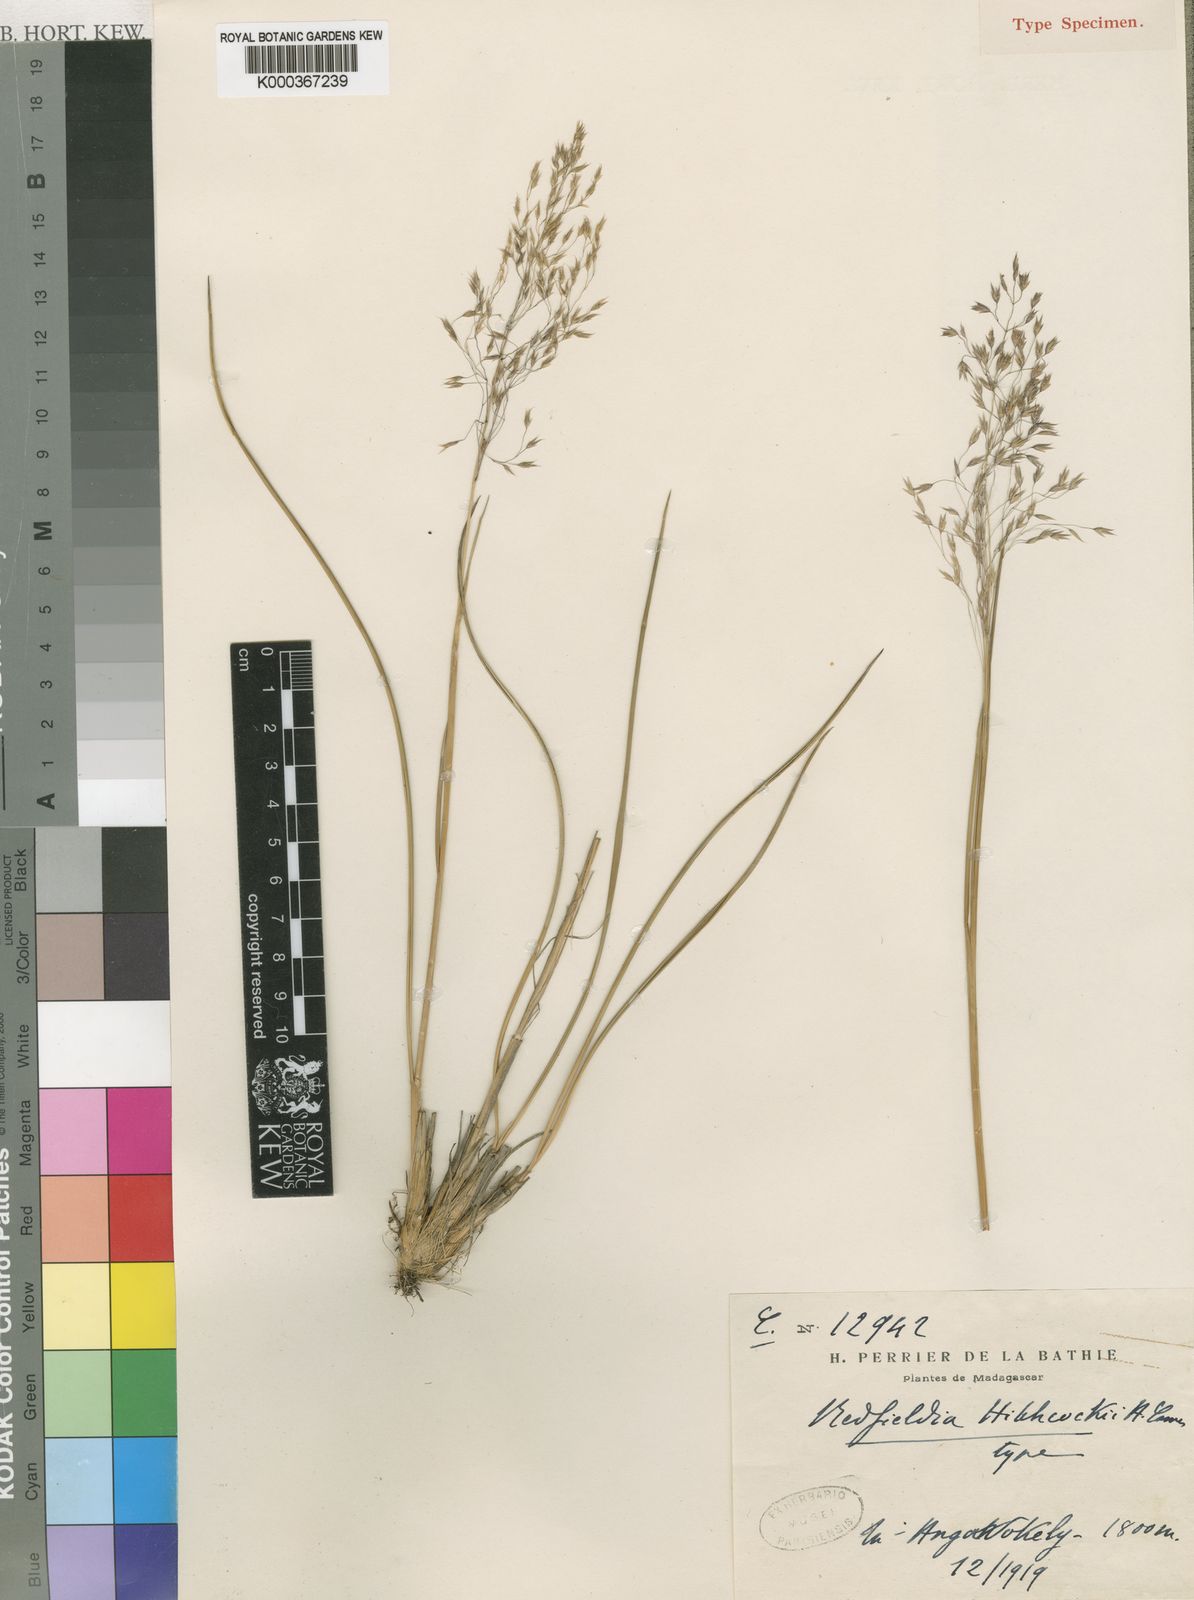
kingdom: Plantae
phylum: Tracheophyta
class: Liliopsida
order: Poales
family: Poaceae
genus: Styppeiochloa
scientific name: Styppeiochloa hitchcockii
